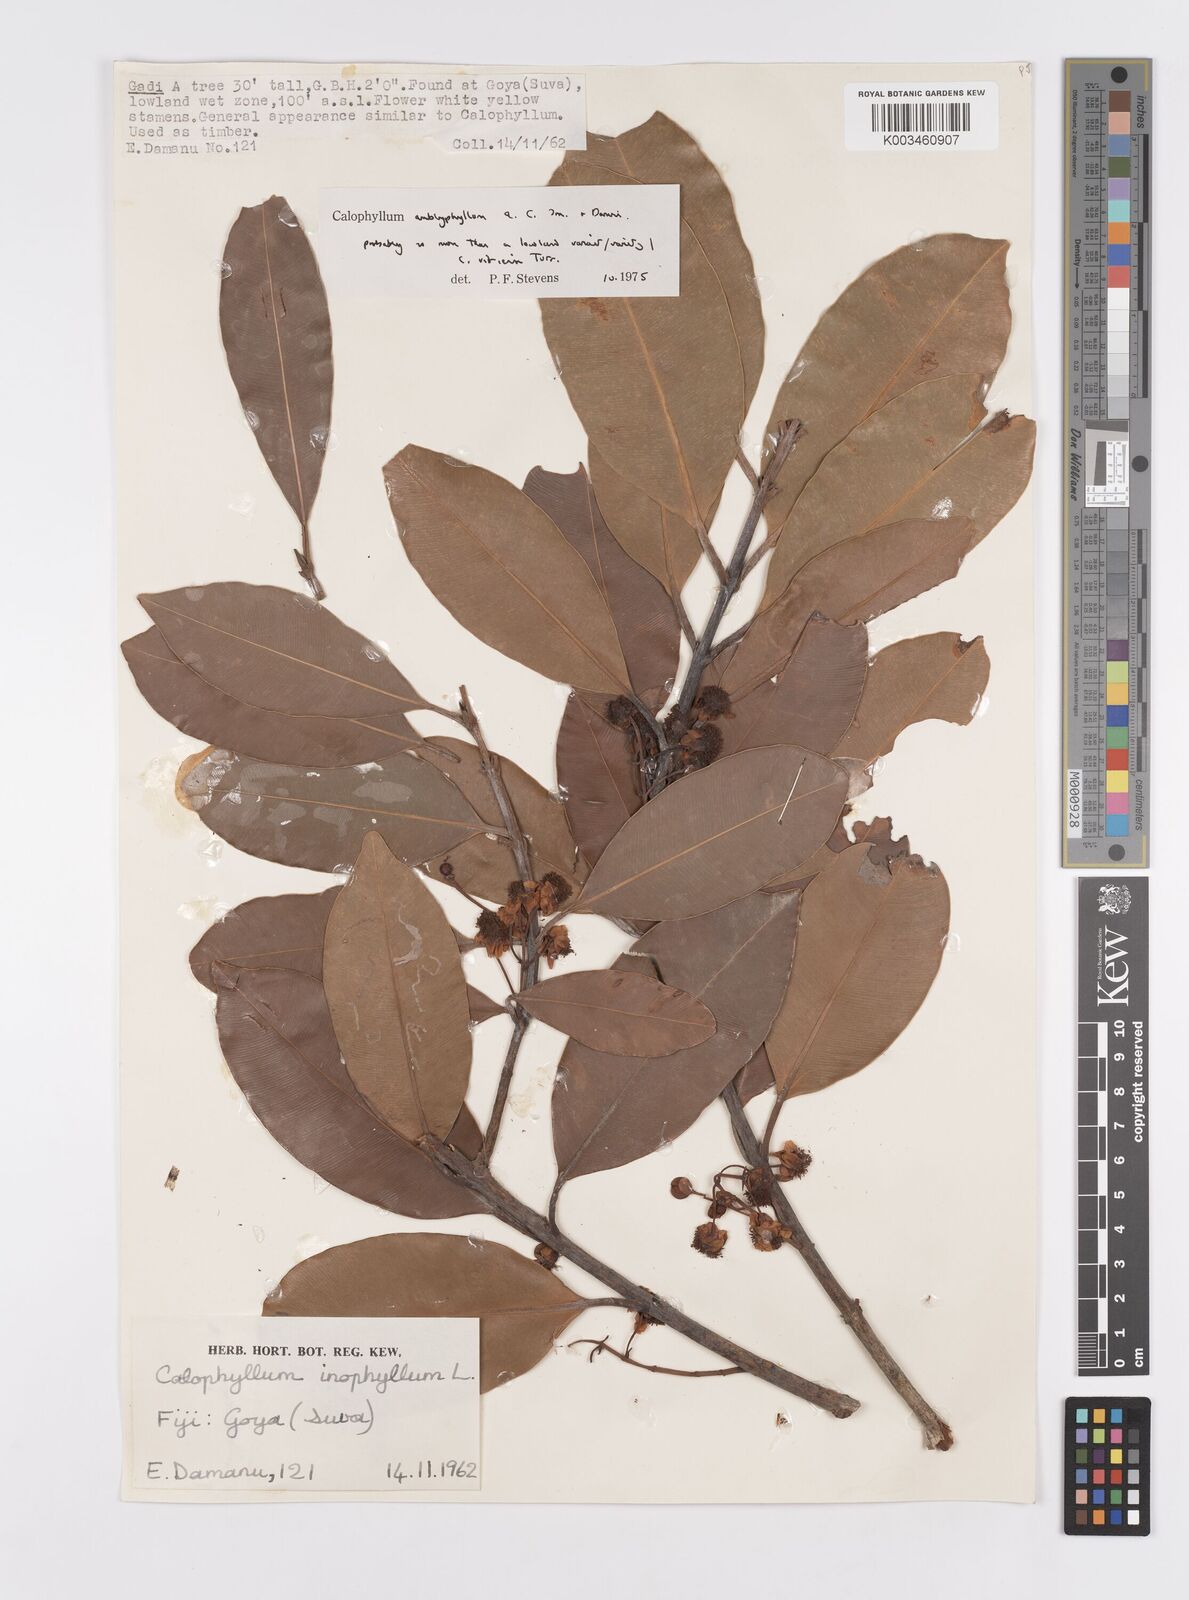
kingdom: Plantae
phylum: Tracheophyta
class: Magnoliopsida
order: Malpighiales
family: Calophyllaceae
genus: Calophyllum
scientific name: Calophyllum vitiense
